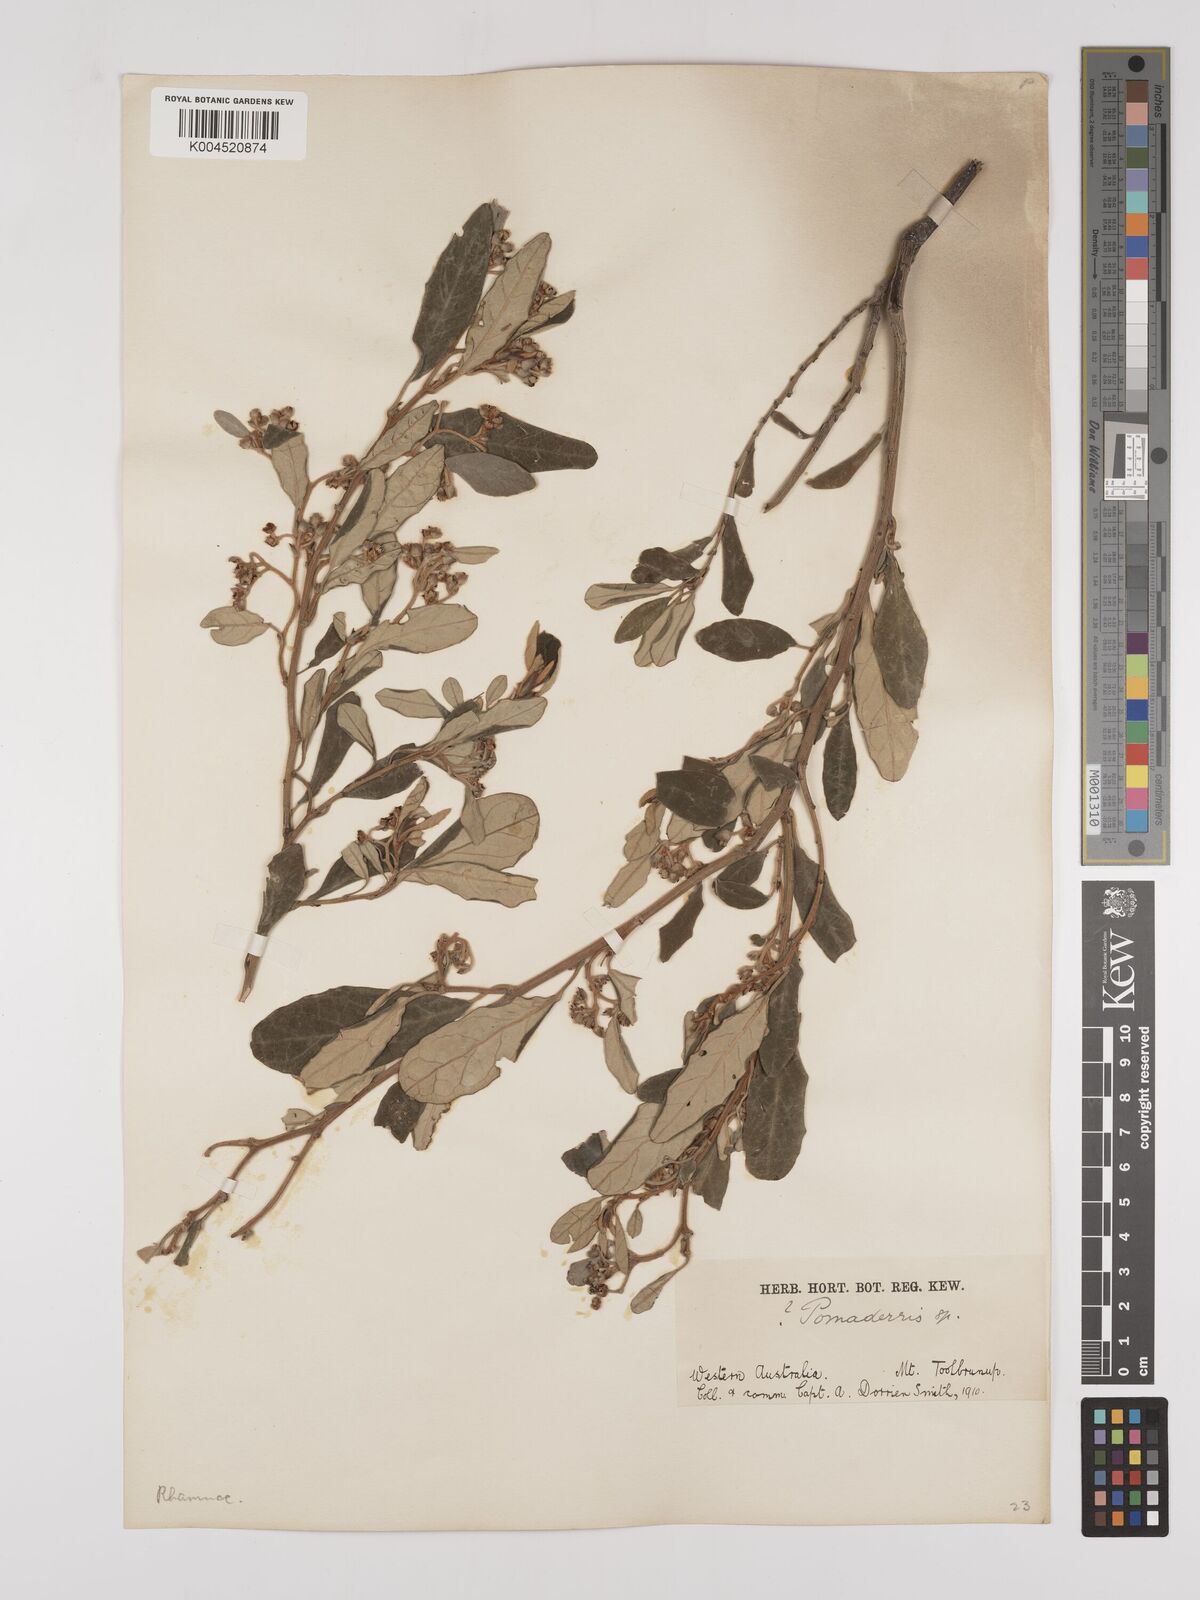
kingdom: Plantae
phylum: Tracheophyta
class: Magnoliopsida
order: Rosales
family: Rhamnaceae
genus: Pomaderris
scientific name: Pomaderris
